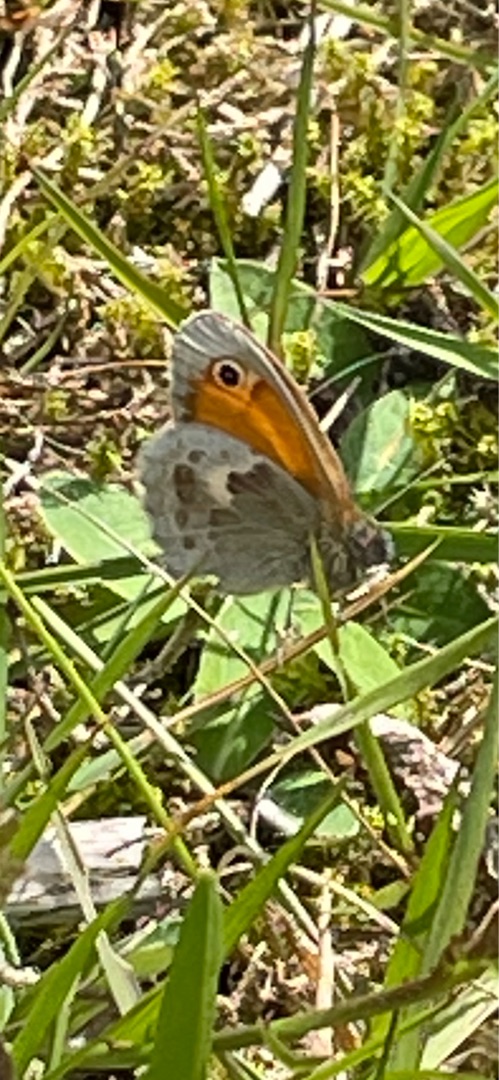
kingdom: Animalia
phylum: Arthropoda
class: Insecta
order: Lepidoptera
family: Nymphalidae
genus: Coenonympha
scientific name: Coenonympha pamphilus
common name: Okkergul randøje
